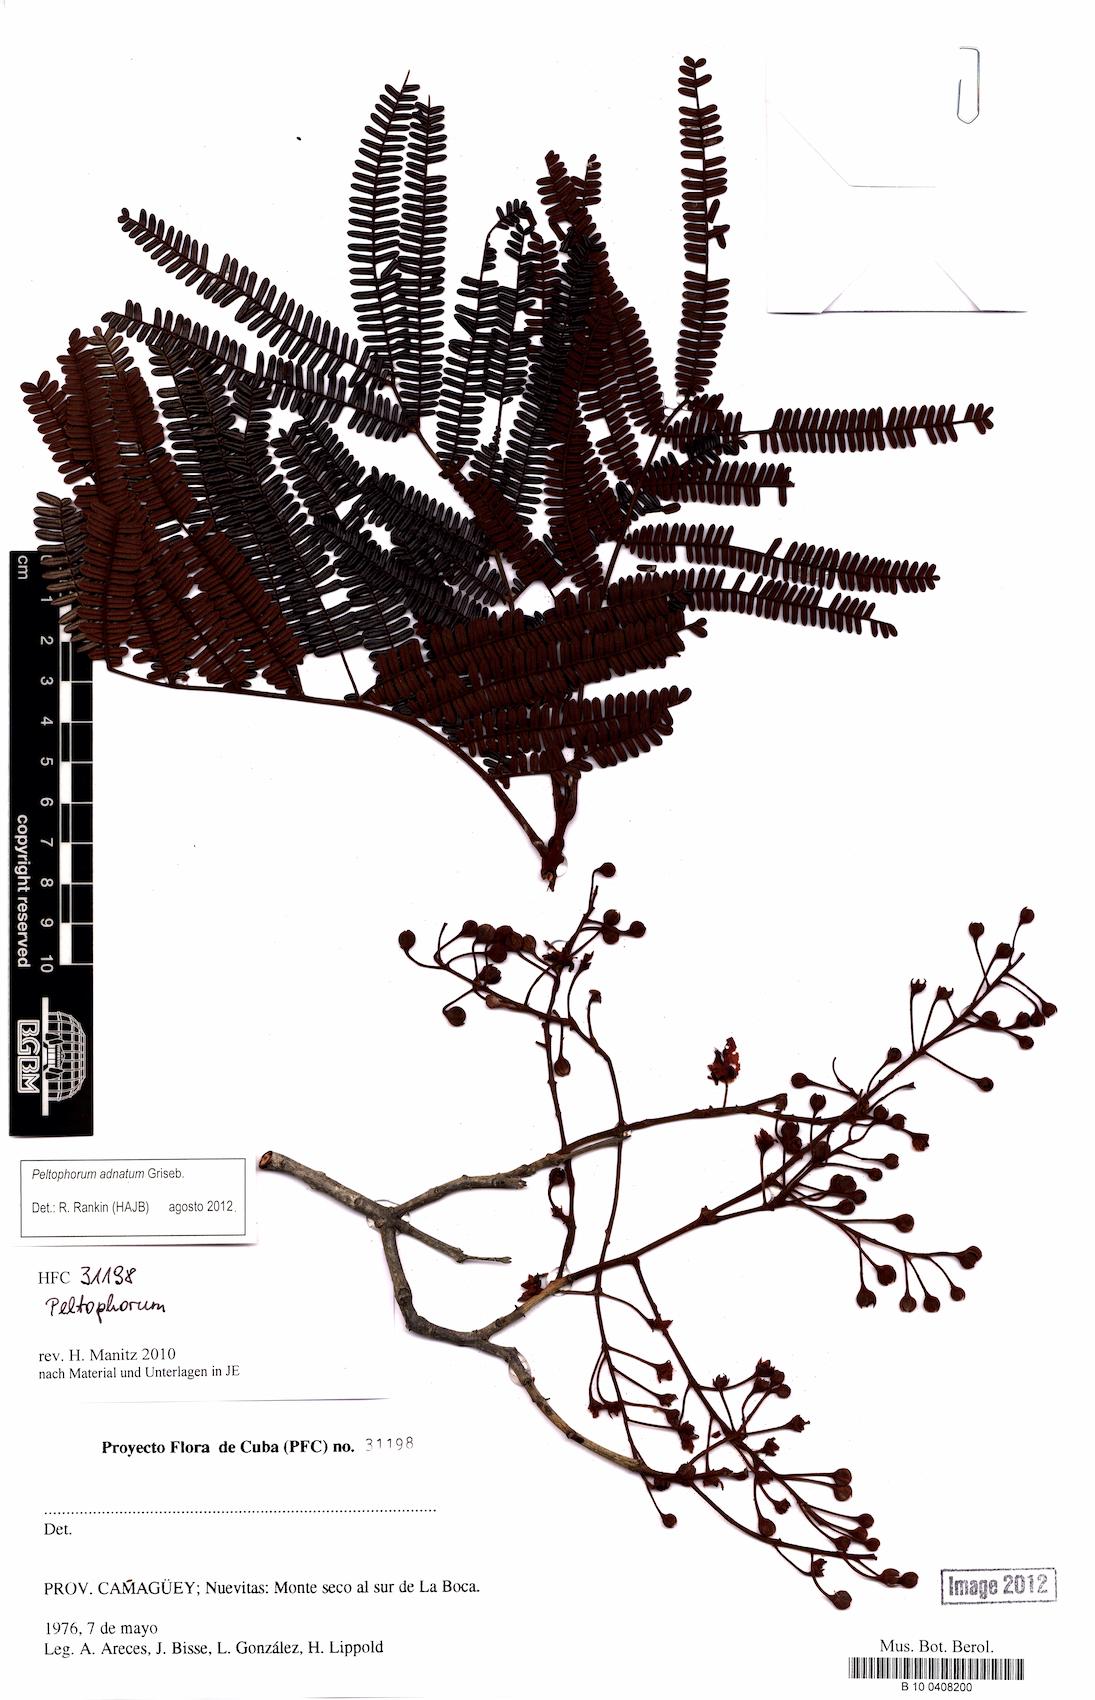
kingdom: Plantae
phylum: Tracheophyta
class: Magnoliopsida
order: Fabales
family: Fabaceae
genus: Peltophorum
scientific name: Peltophorum dubium
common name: Horsebush
